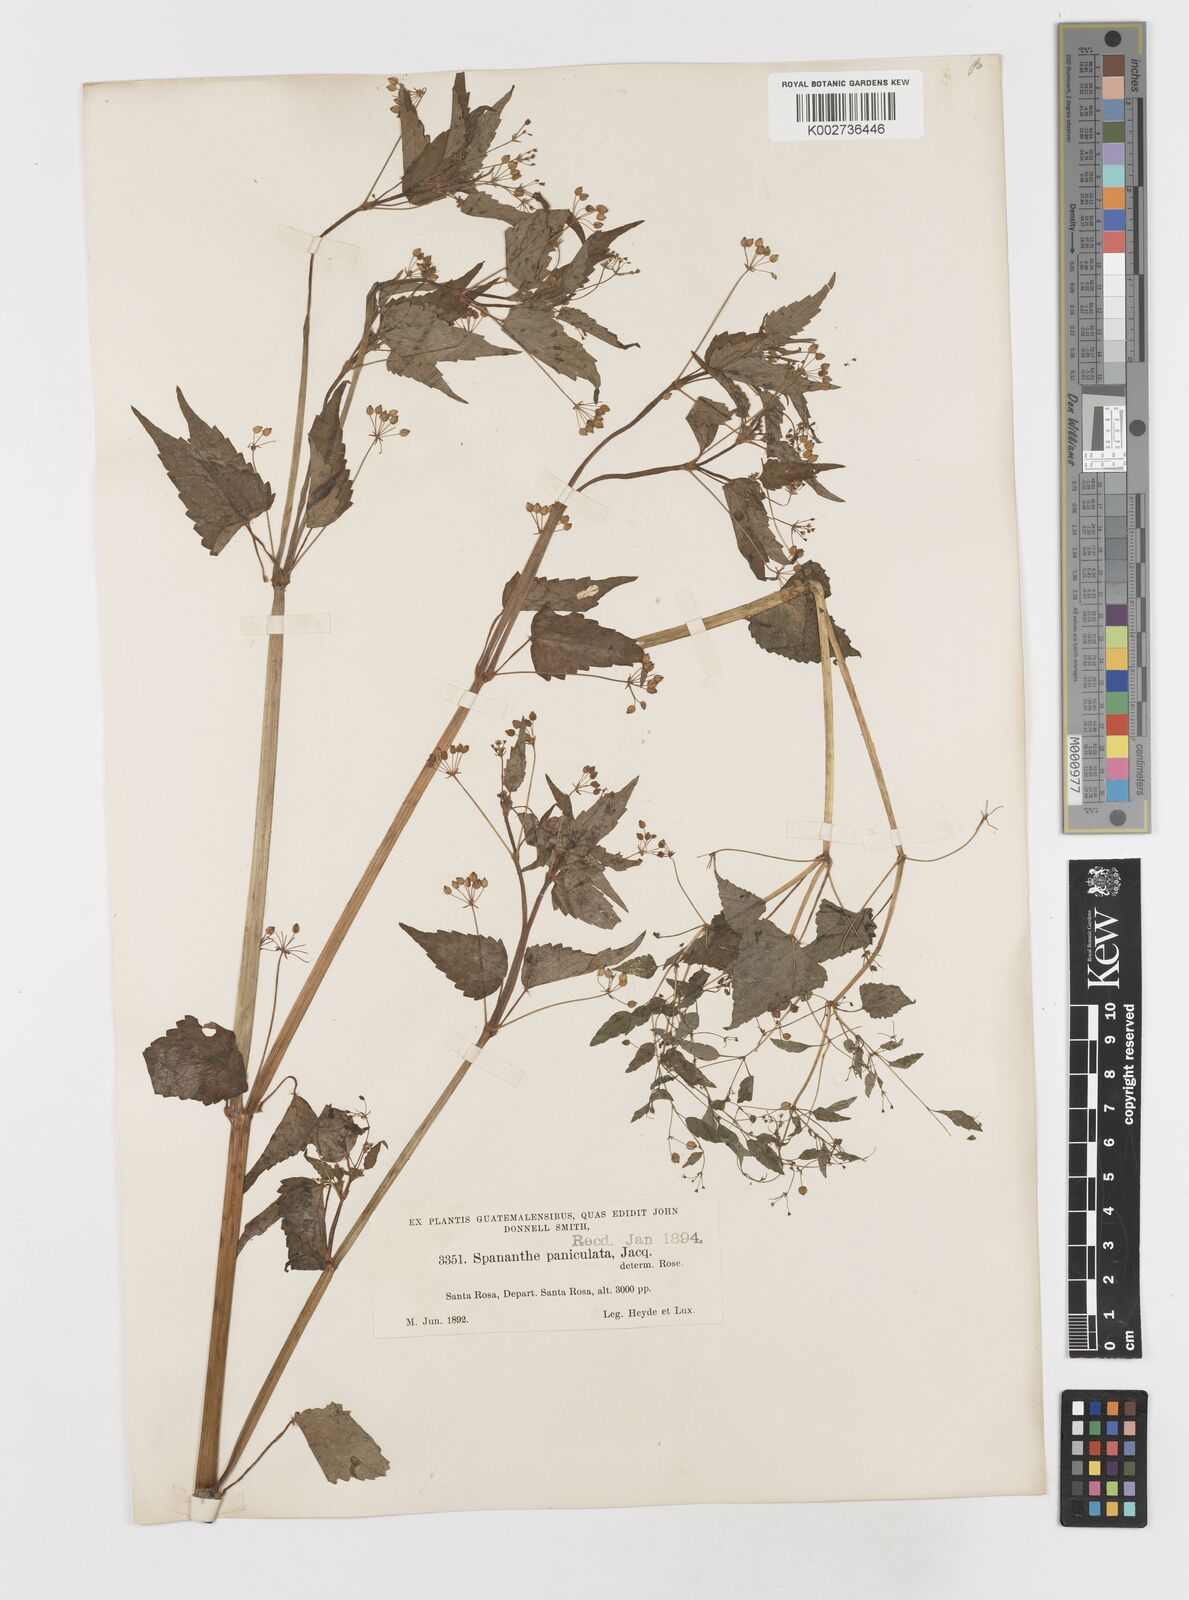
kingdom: Plantae
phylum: Tracheophyta
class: Magnoliopsida
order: Apiales
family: Apiaceae
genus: Spananthe
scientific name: Spananthe paniculata
